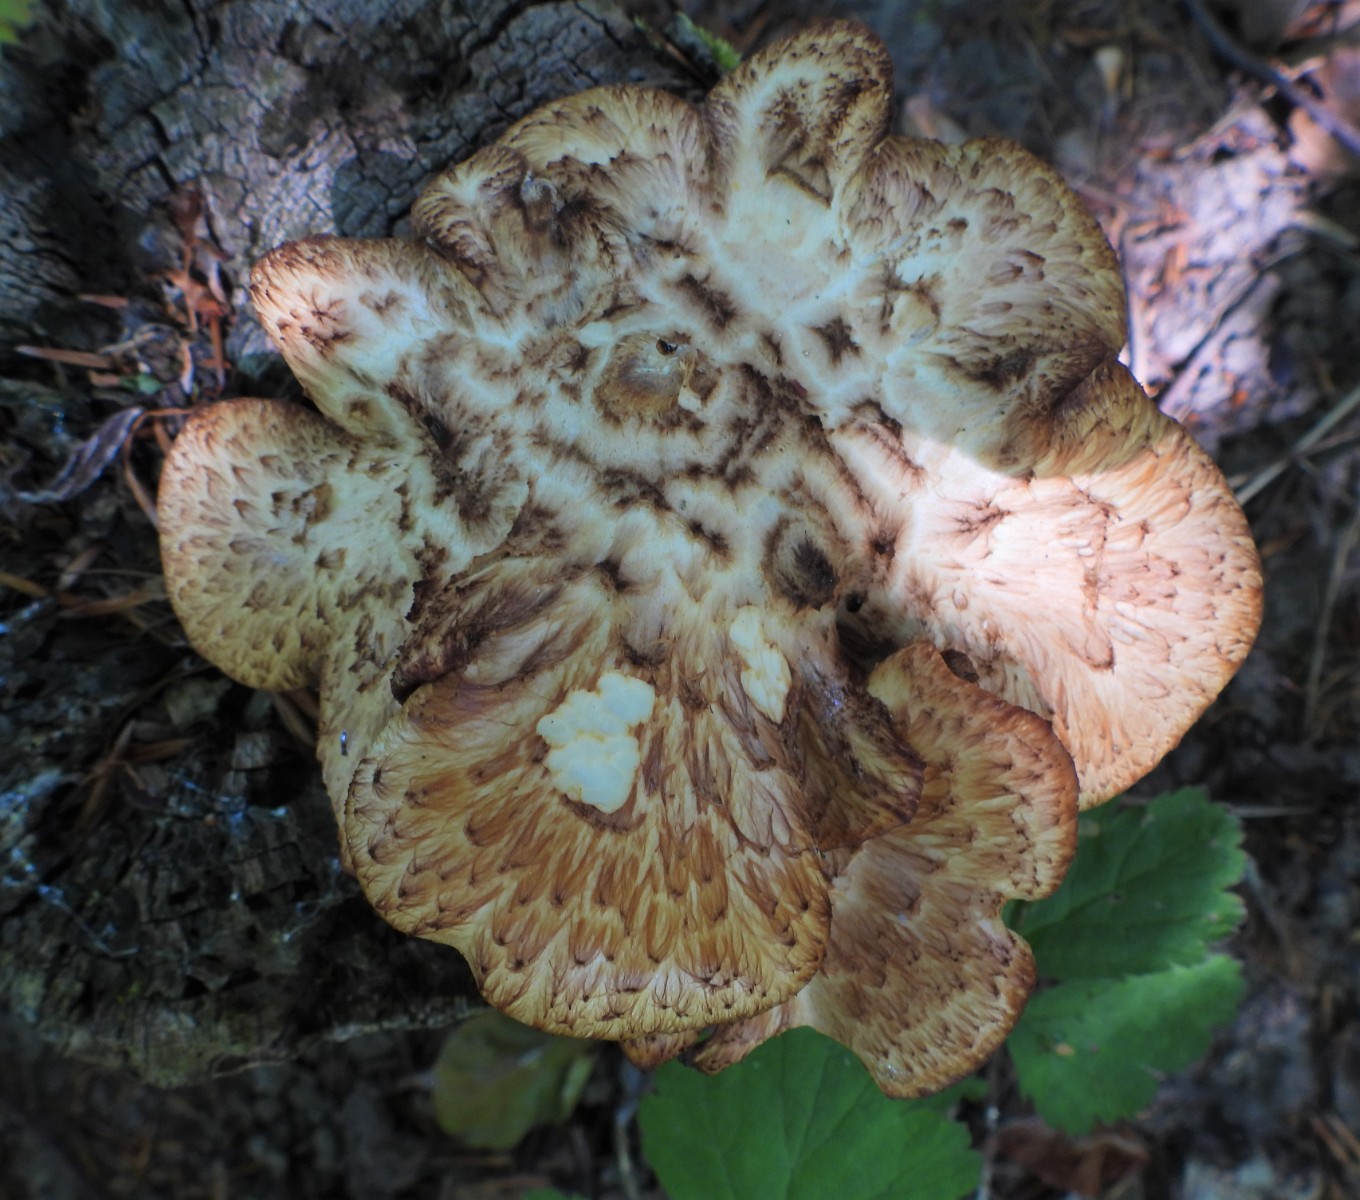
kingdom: Fungi
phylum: Basidiomycota
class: Agaricomycetes
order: Polyporales
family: Polyporaceae
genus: Cerioporus
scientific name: Cerioporus squamosus
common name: skællet stilkporesvamp
